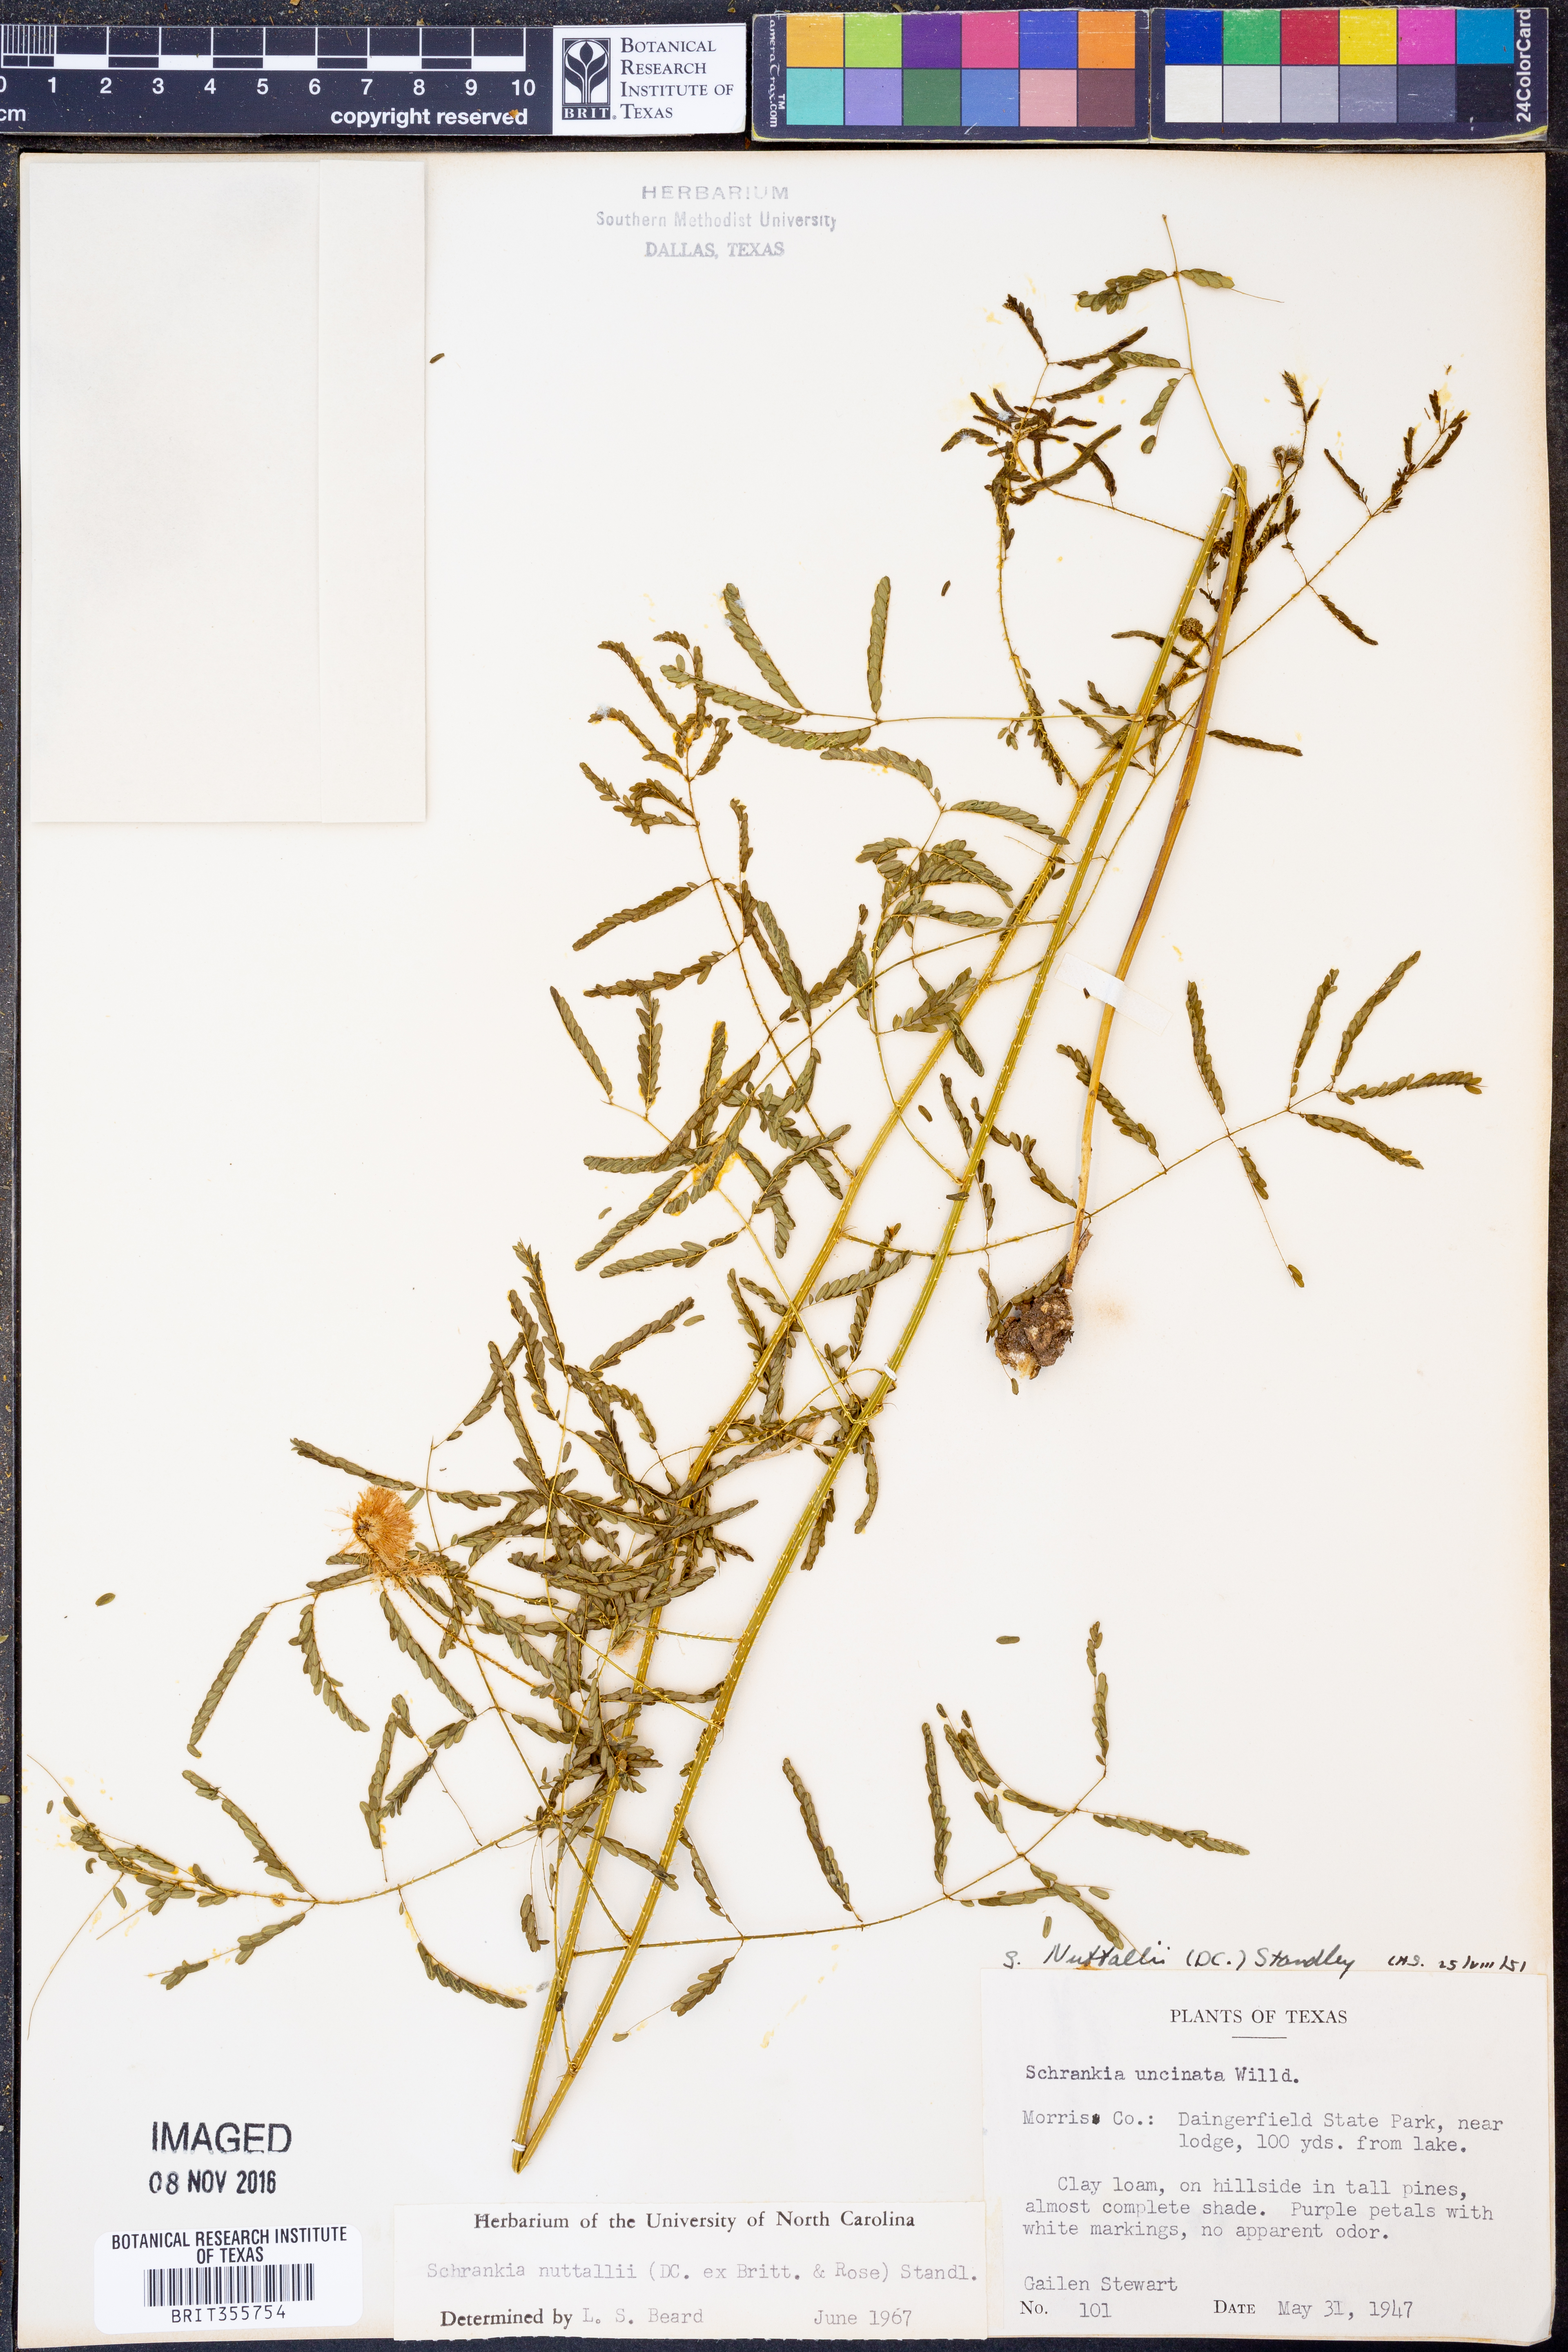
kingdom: Plantae
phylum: Tracheophyta
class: Magnoliopsida
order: Fabales
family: Fabaceae
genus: Mimosa
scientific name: Mimosa quadrivalvis
